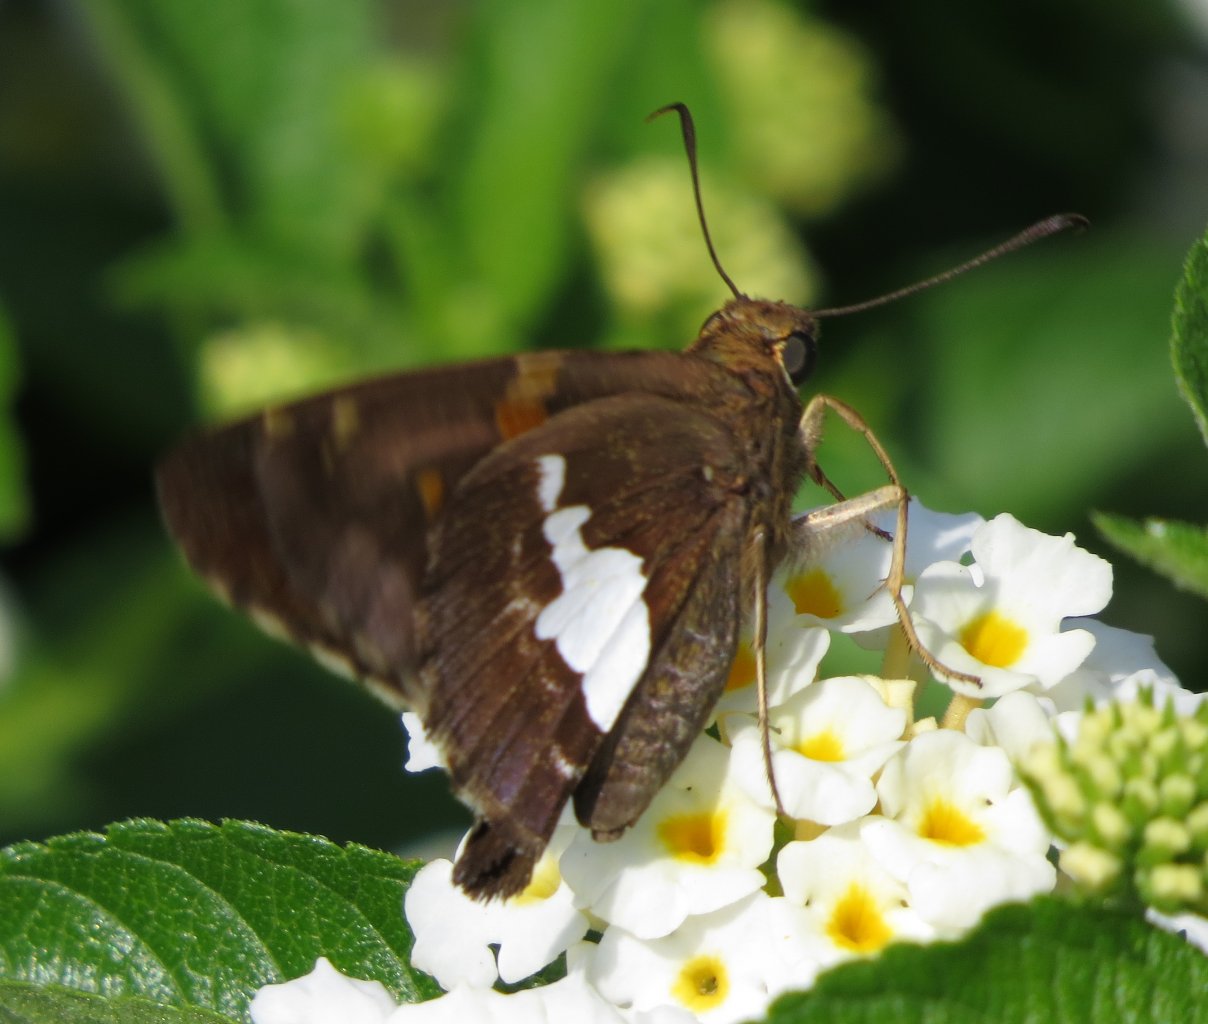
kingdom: Animalia
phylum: Arthropoda
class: Insecta
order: Lepidoptera
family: Hesperiidae
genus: Epargyreus
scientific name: Epargyreus clarus
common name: Silver-spotted Skipper
